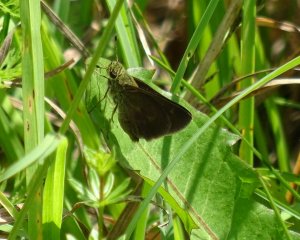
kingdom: Animalia
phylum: Arthropoda
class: Insecta
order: Lepidoptera
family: Hesperiidae
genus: Euphyes
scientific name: Euphyes vestris
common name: Dun Skipper
